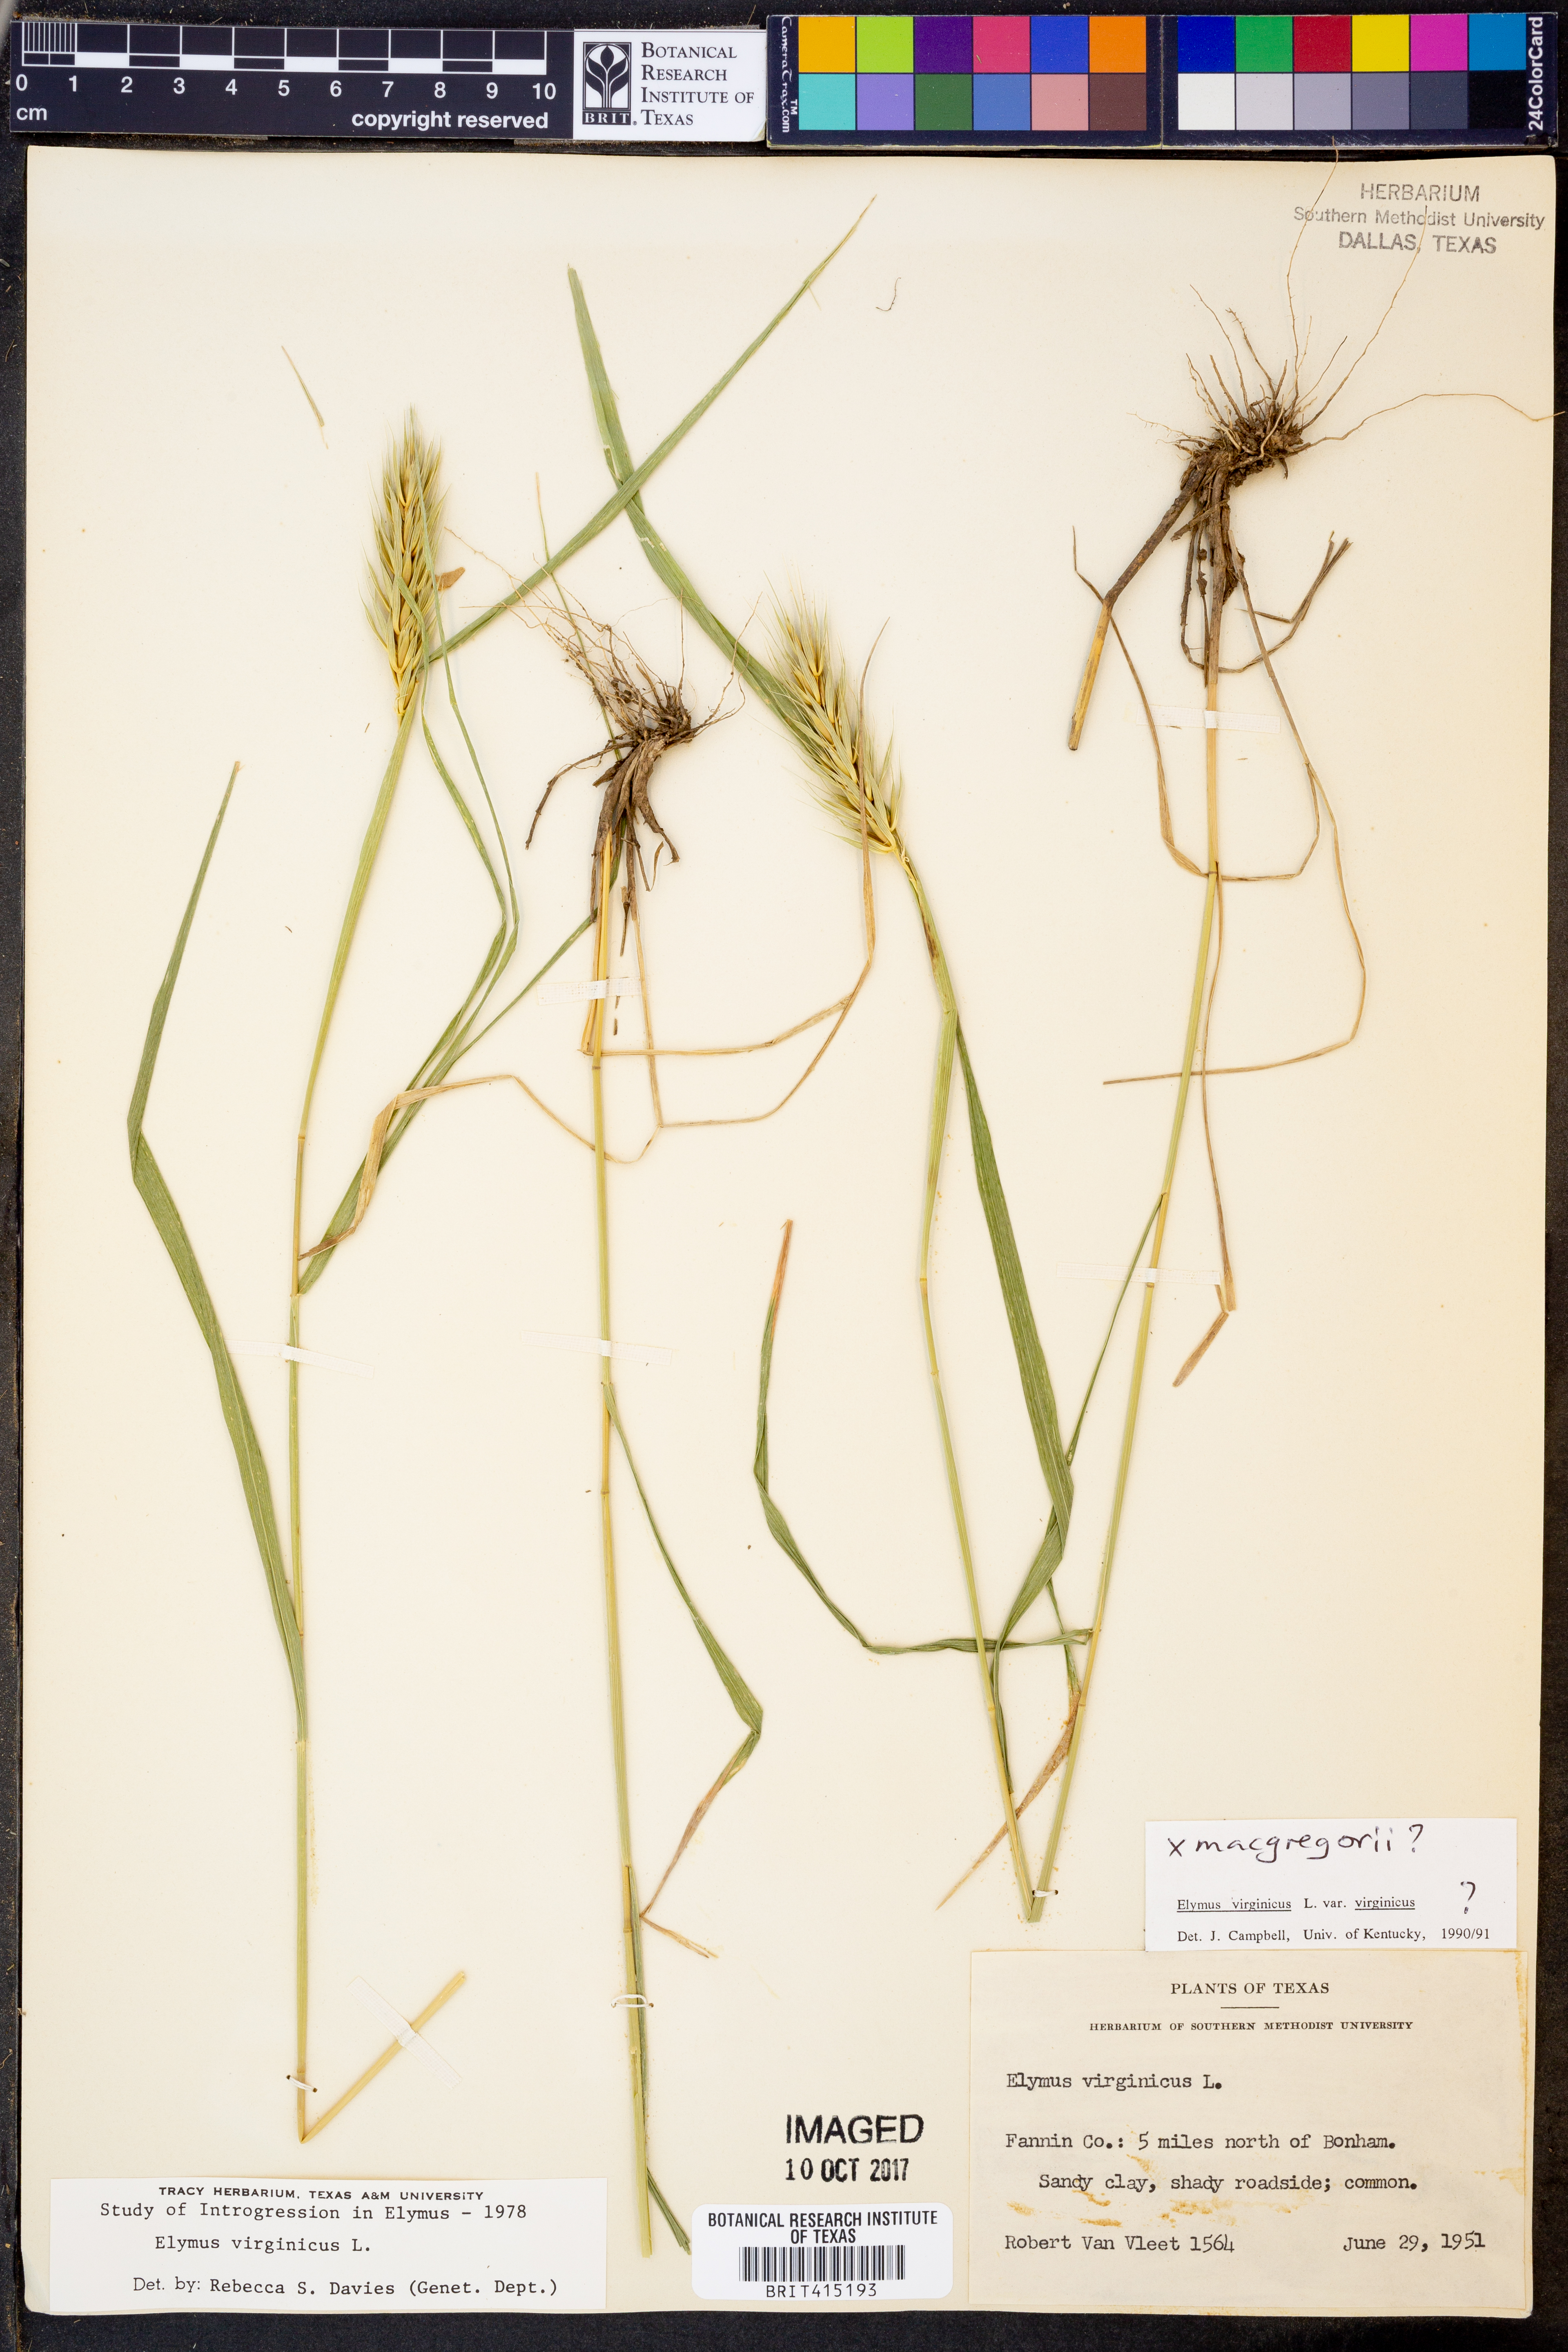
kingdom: Plantae
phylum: Tracheophyta
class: Liliopsida
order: Poales
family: Poaceae
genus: Elymus
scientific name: Elymus virginicus
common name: Common eastern wildrye
